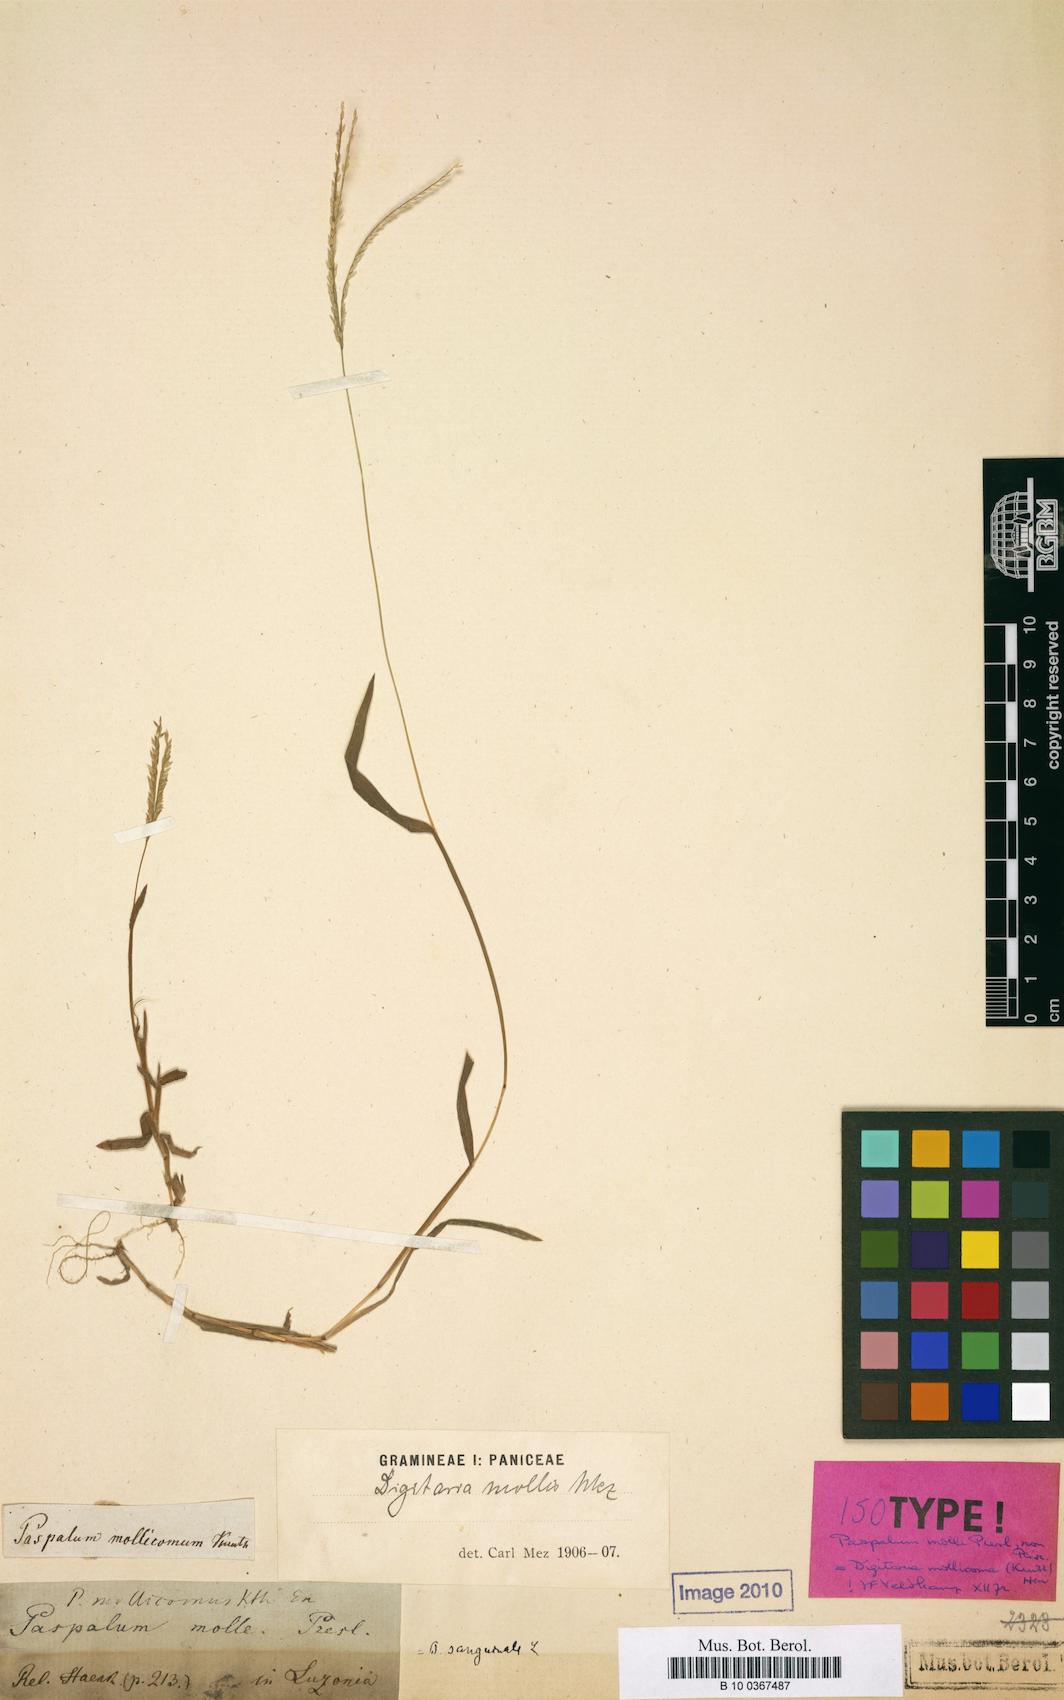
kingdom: Plantae
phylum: Tracheophyta
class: Liliopsida
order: Poales
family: Poaceae
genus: Paspalum
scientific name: Paspalum molle
